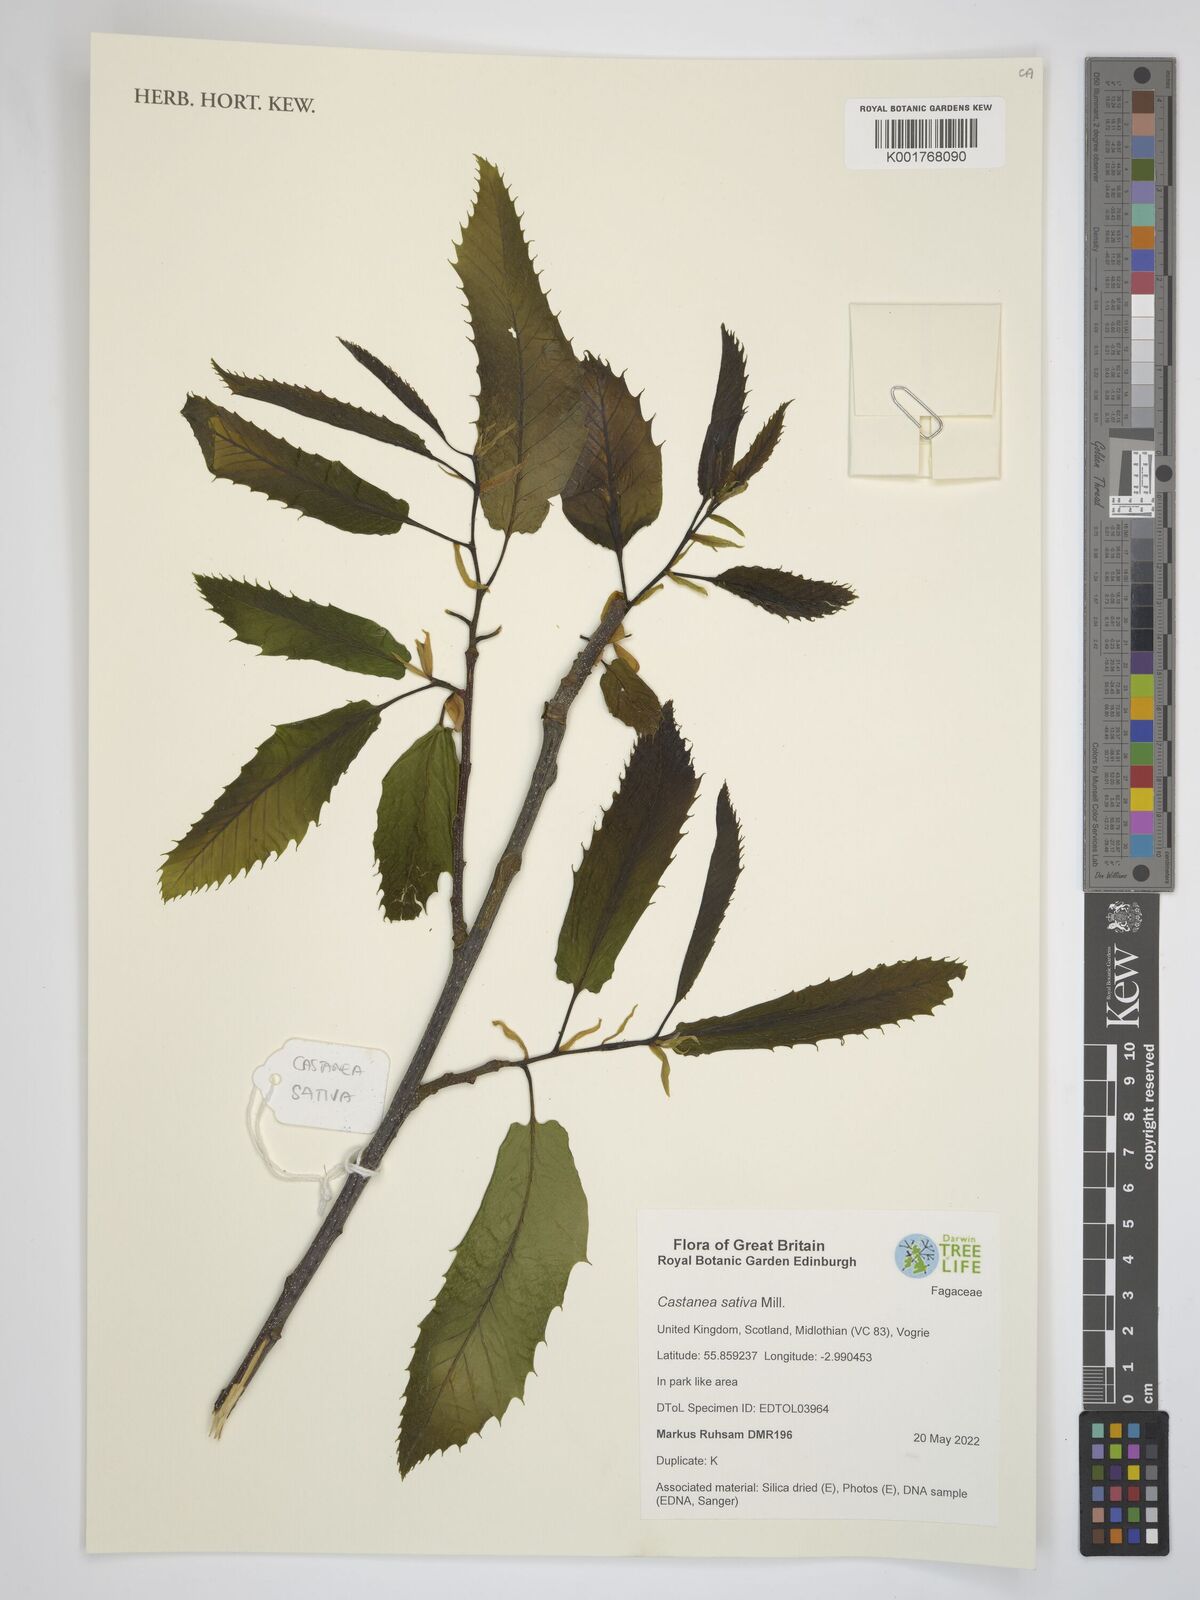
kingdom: Plantae
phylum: Tracheophyta
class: Magnoliopsida
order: Fagales
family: Fagaceae
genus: Castanea
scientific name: Castanea sativa
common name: Sweet chestnut
